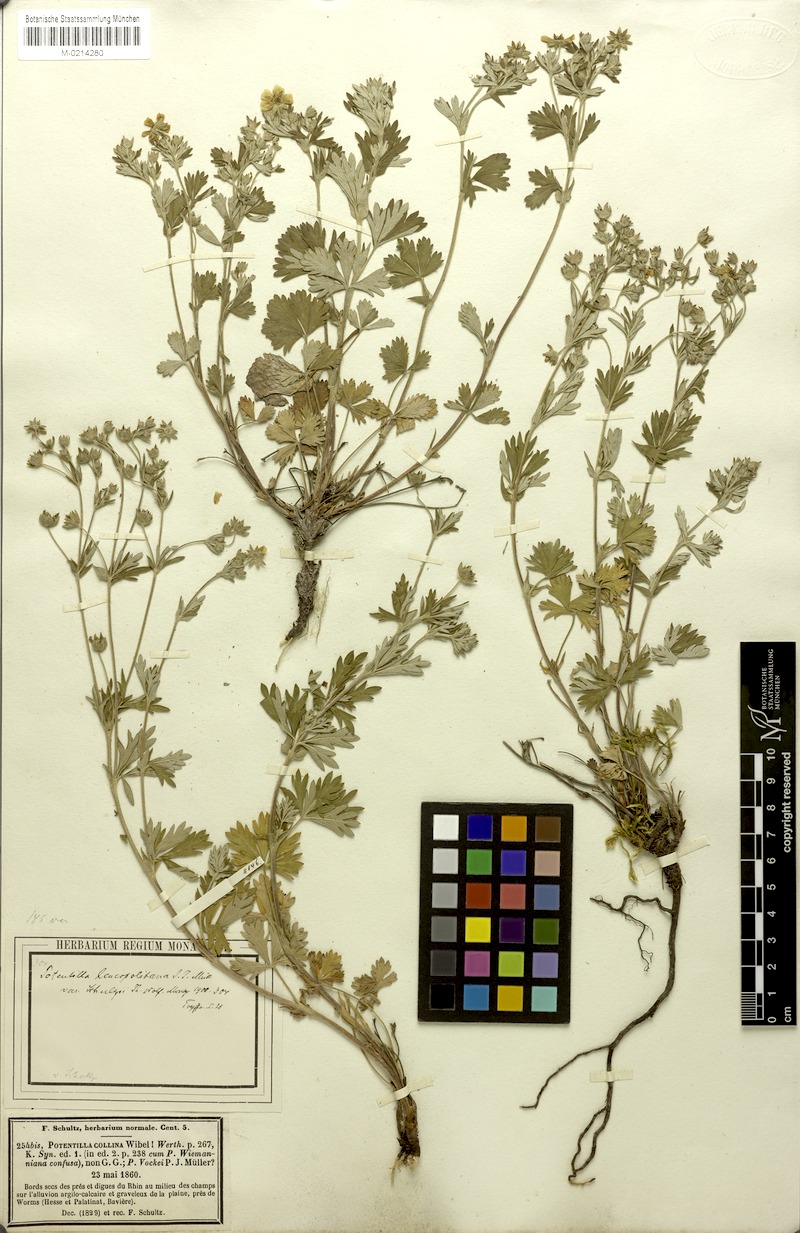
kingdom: Plantae
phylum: Tracheophyta
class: Magnoliopsida
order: Rosales
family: Rosaceae
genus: Potentilla
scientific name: Potentilla collina
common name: Palmleaf cinquefoil
